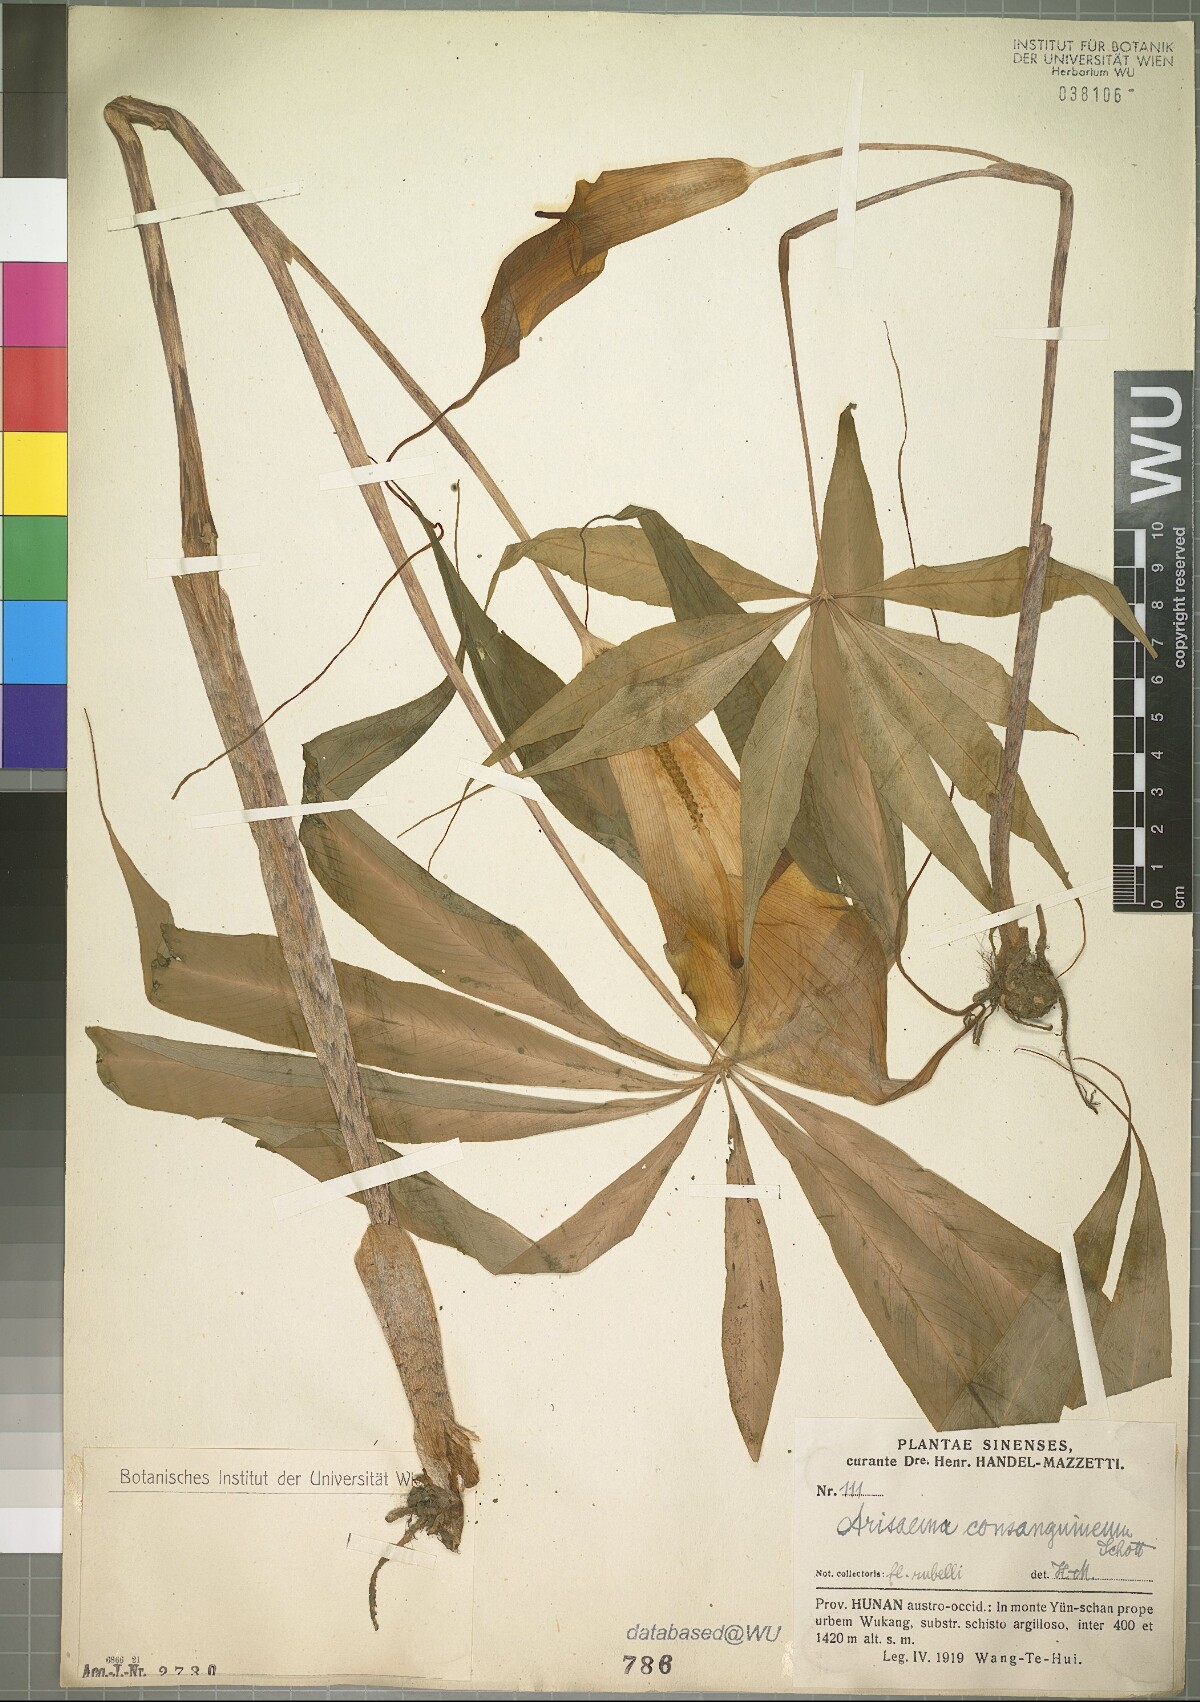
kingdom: Plantae
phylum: Tracheophyta
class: Liliopsida
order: Alismatales
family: Araceae
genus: Arisaema
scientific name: Arisaema consanguineum
